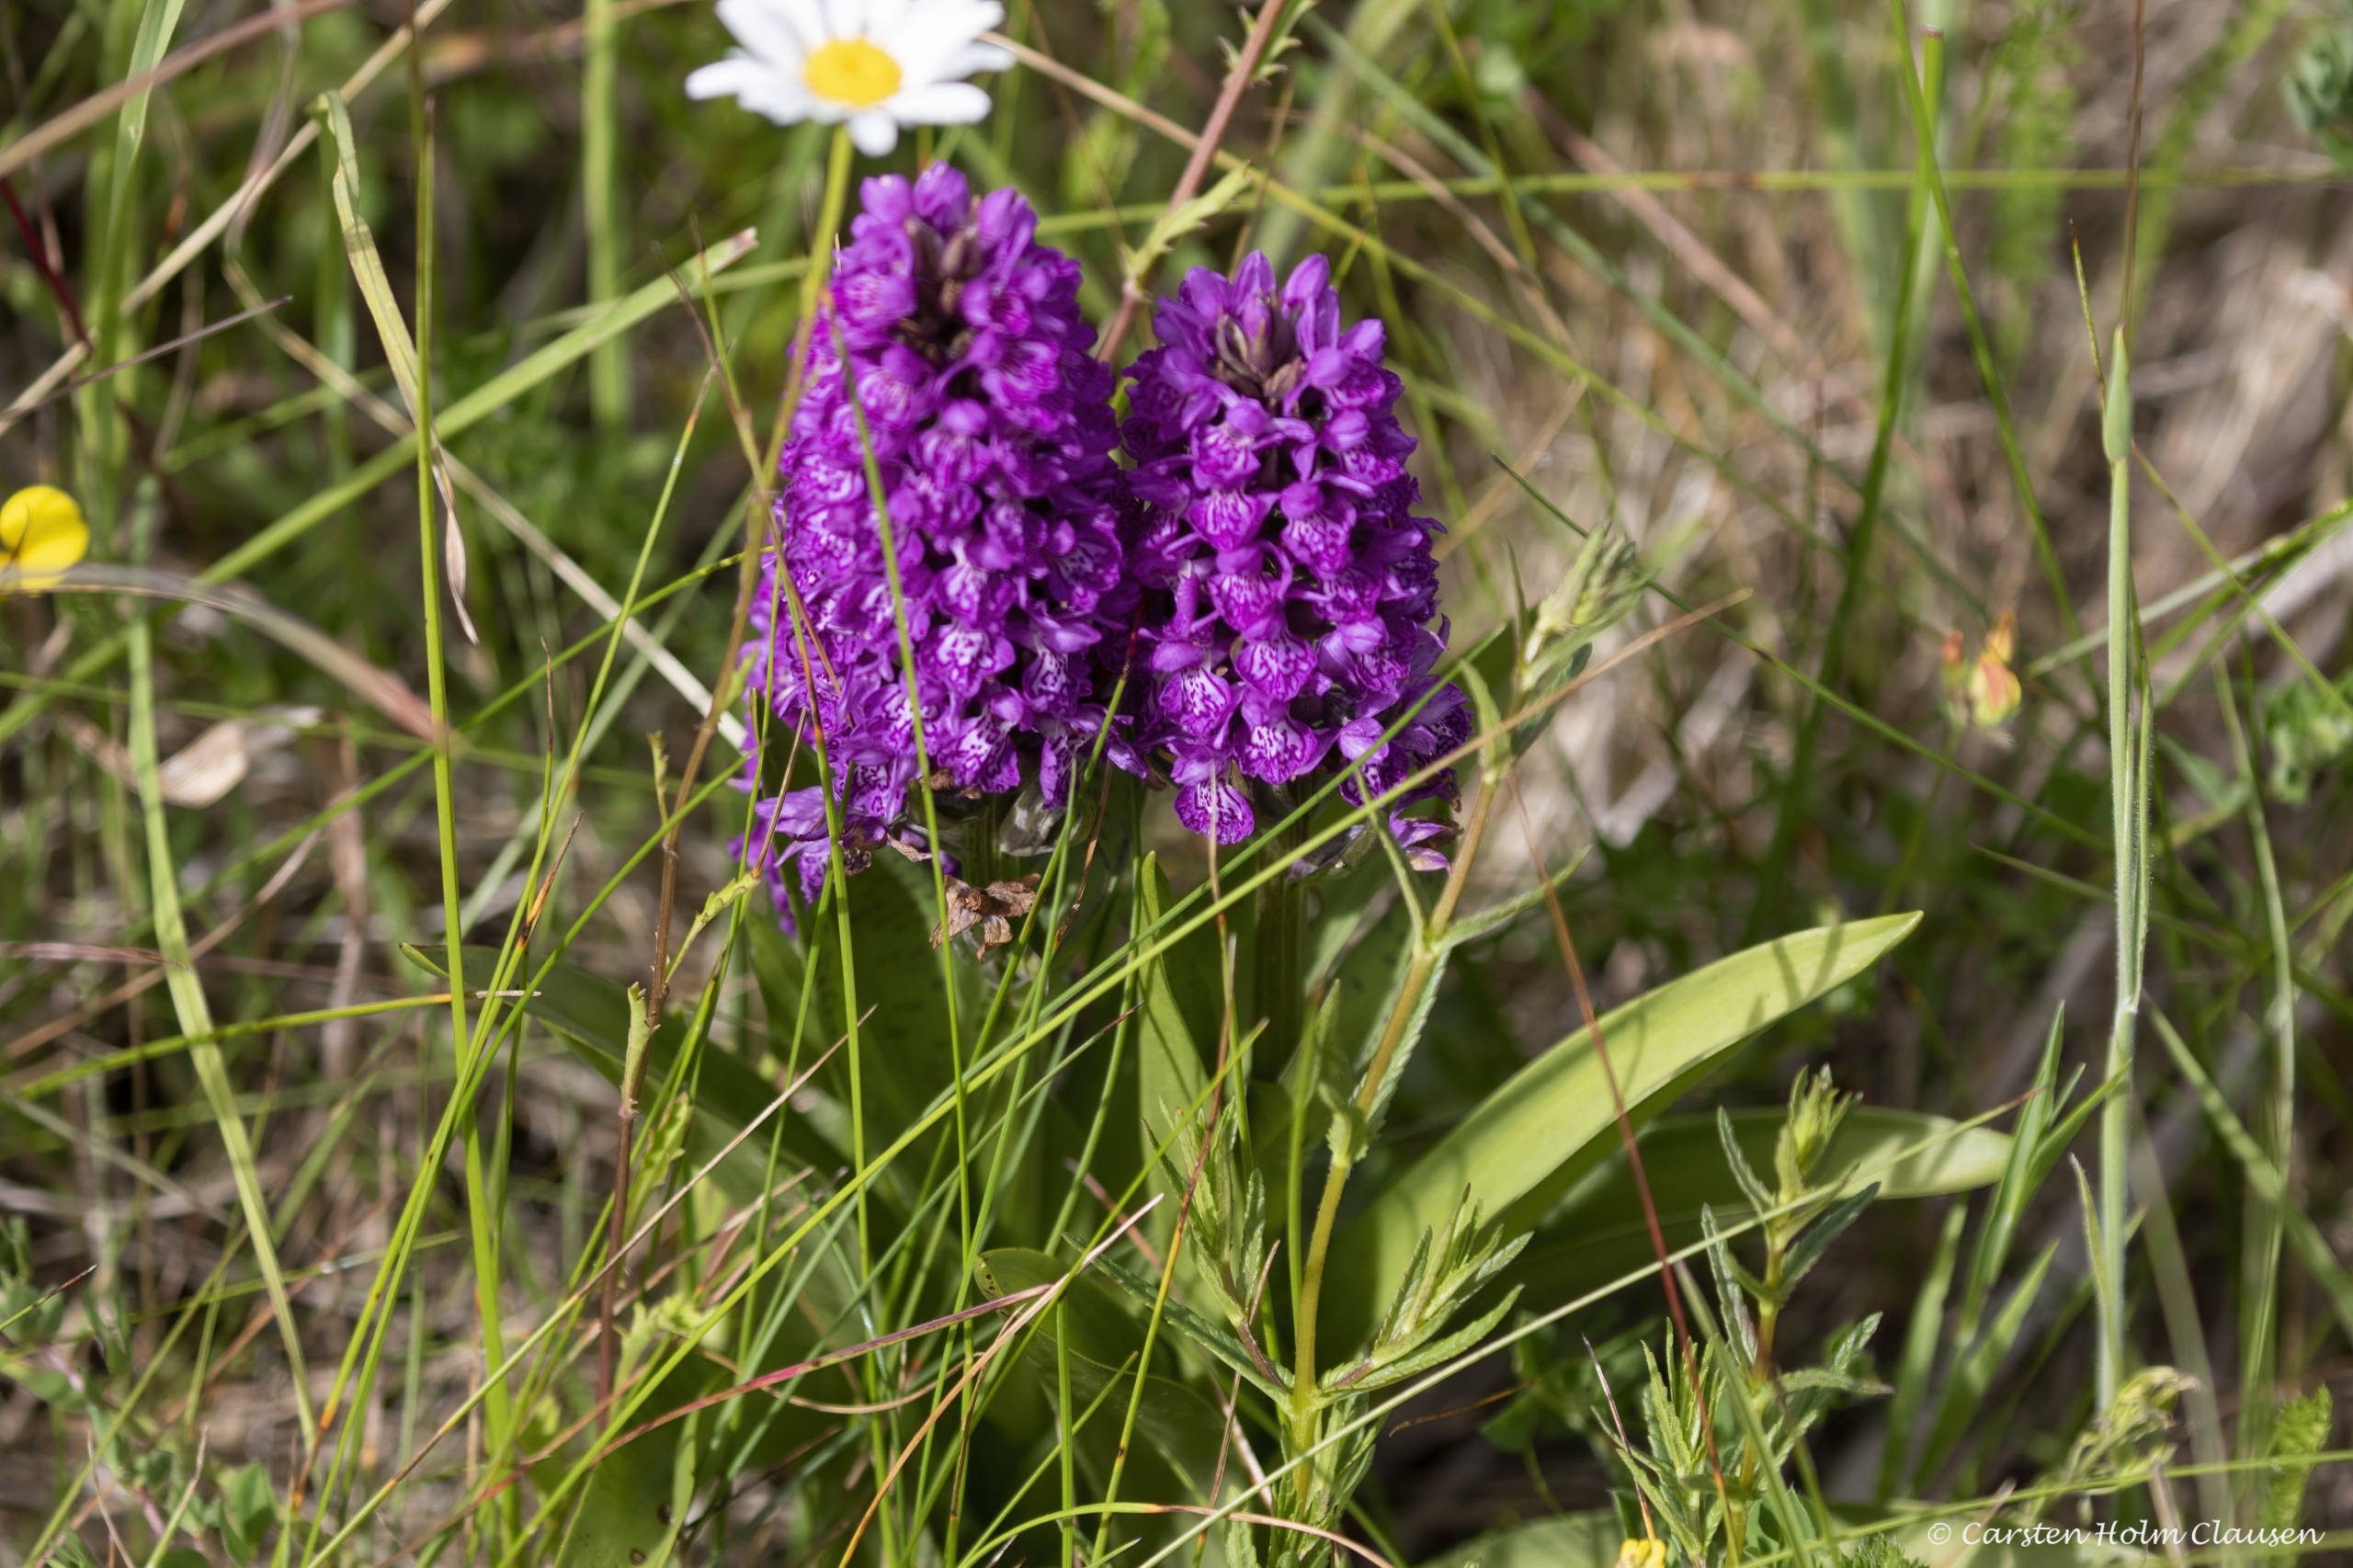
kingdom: Plantae
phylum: Tracheophyta
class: Liliopsida
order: Asparagales
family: Orchidaceae
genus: Dactylorhiza
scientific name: Dactylorhiza majalis
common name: Purpur-gøgeurt
